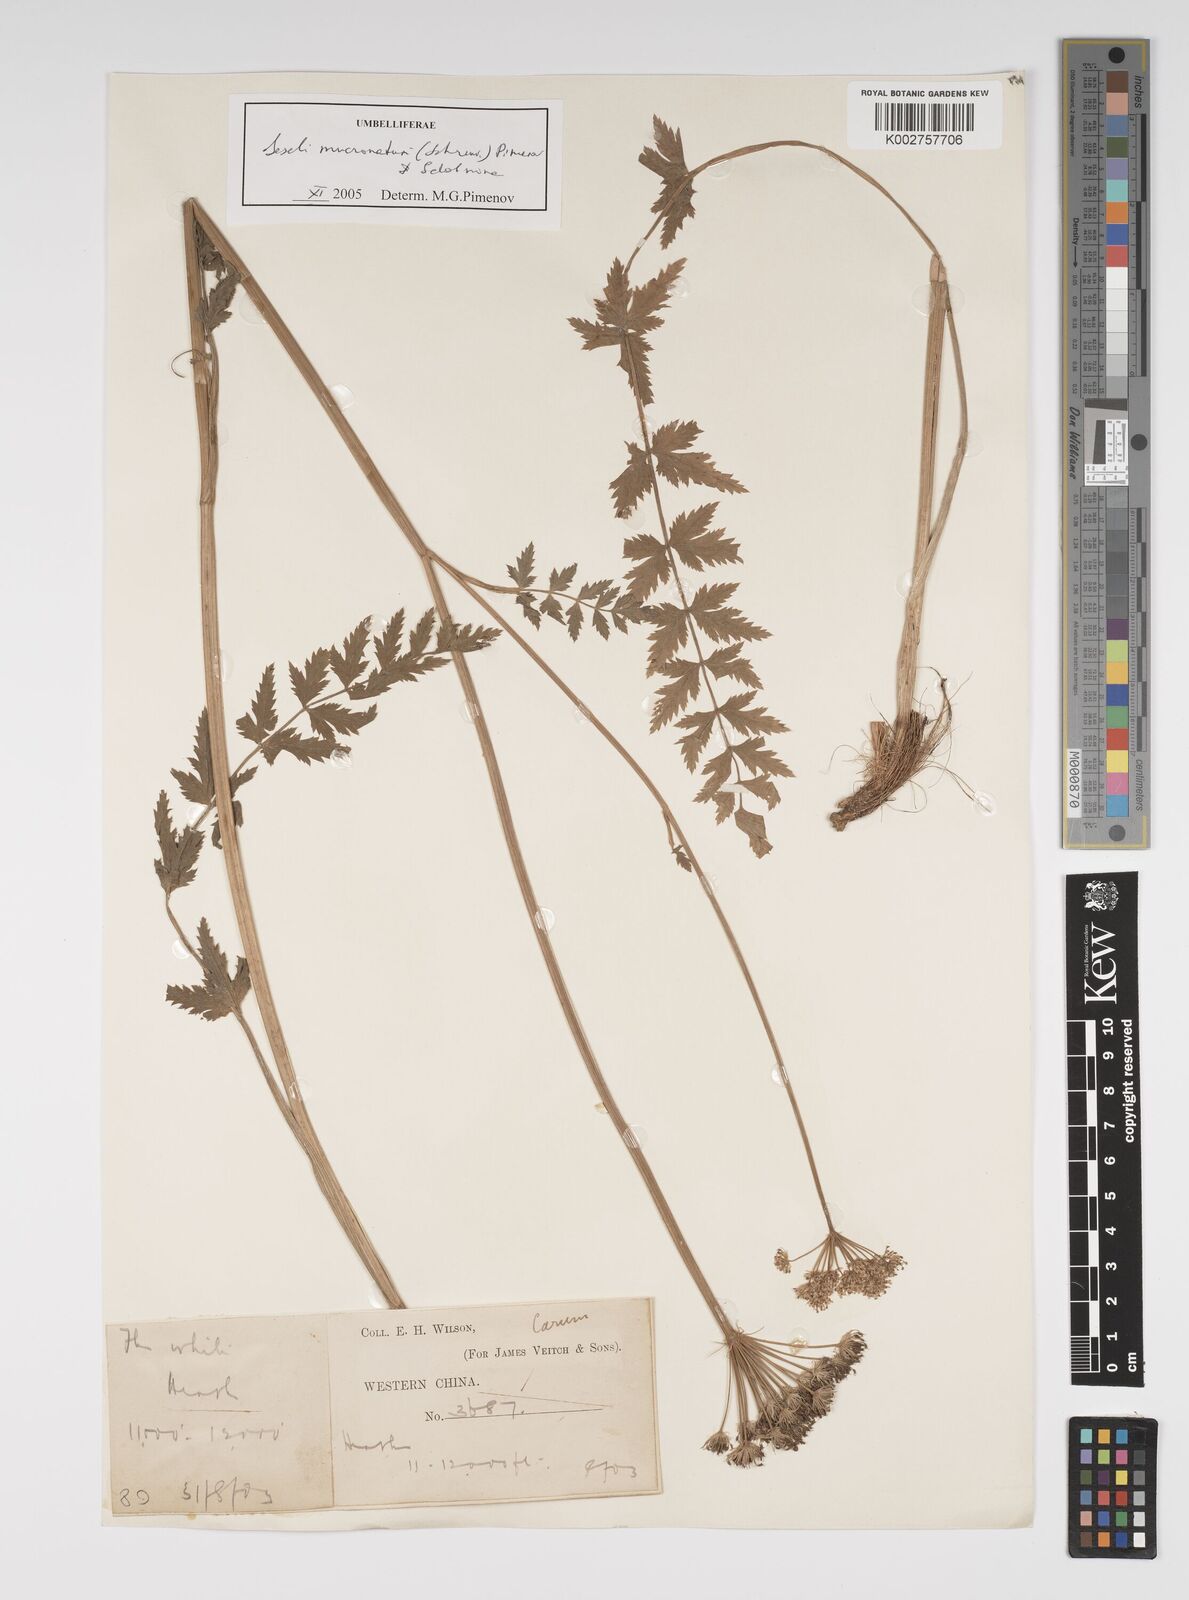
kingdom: Plantae
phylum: Tracheophyta
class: Magnoliopsida
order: Apiales
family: Apiaceae
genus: Seseli
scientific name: Seseli mucronatum
